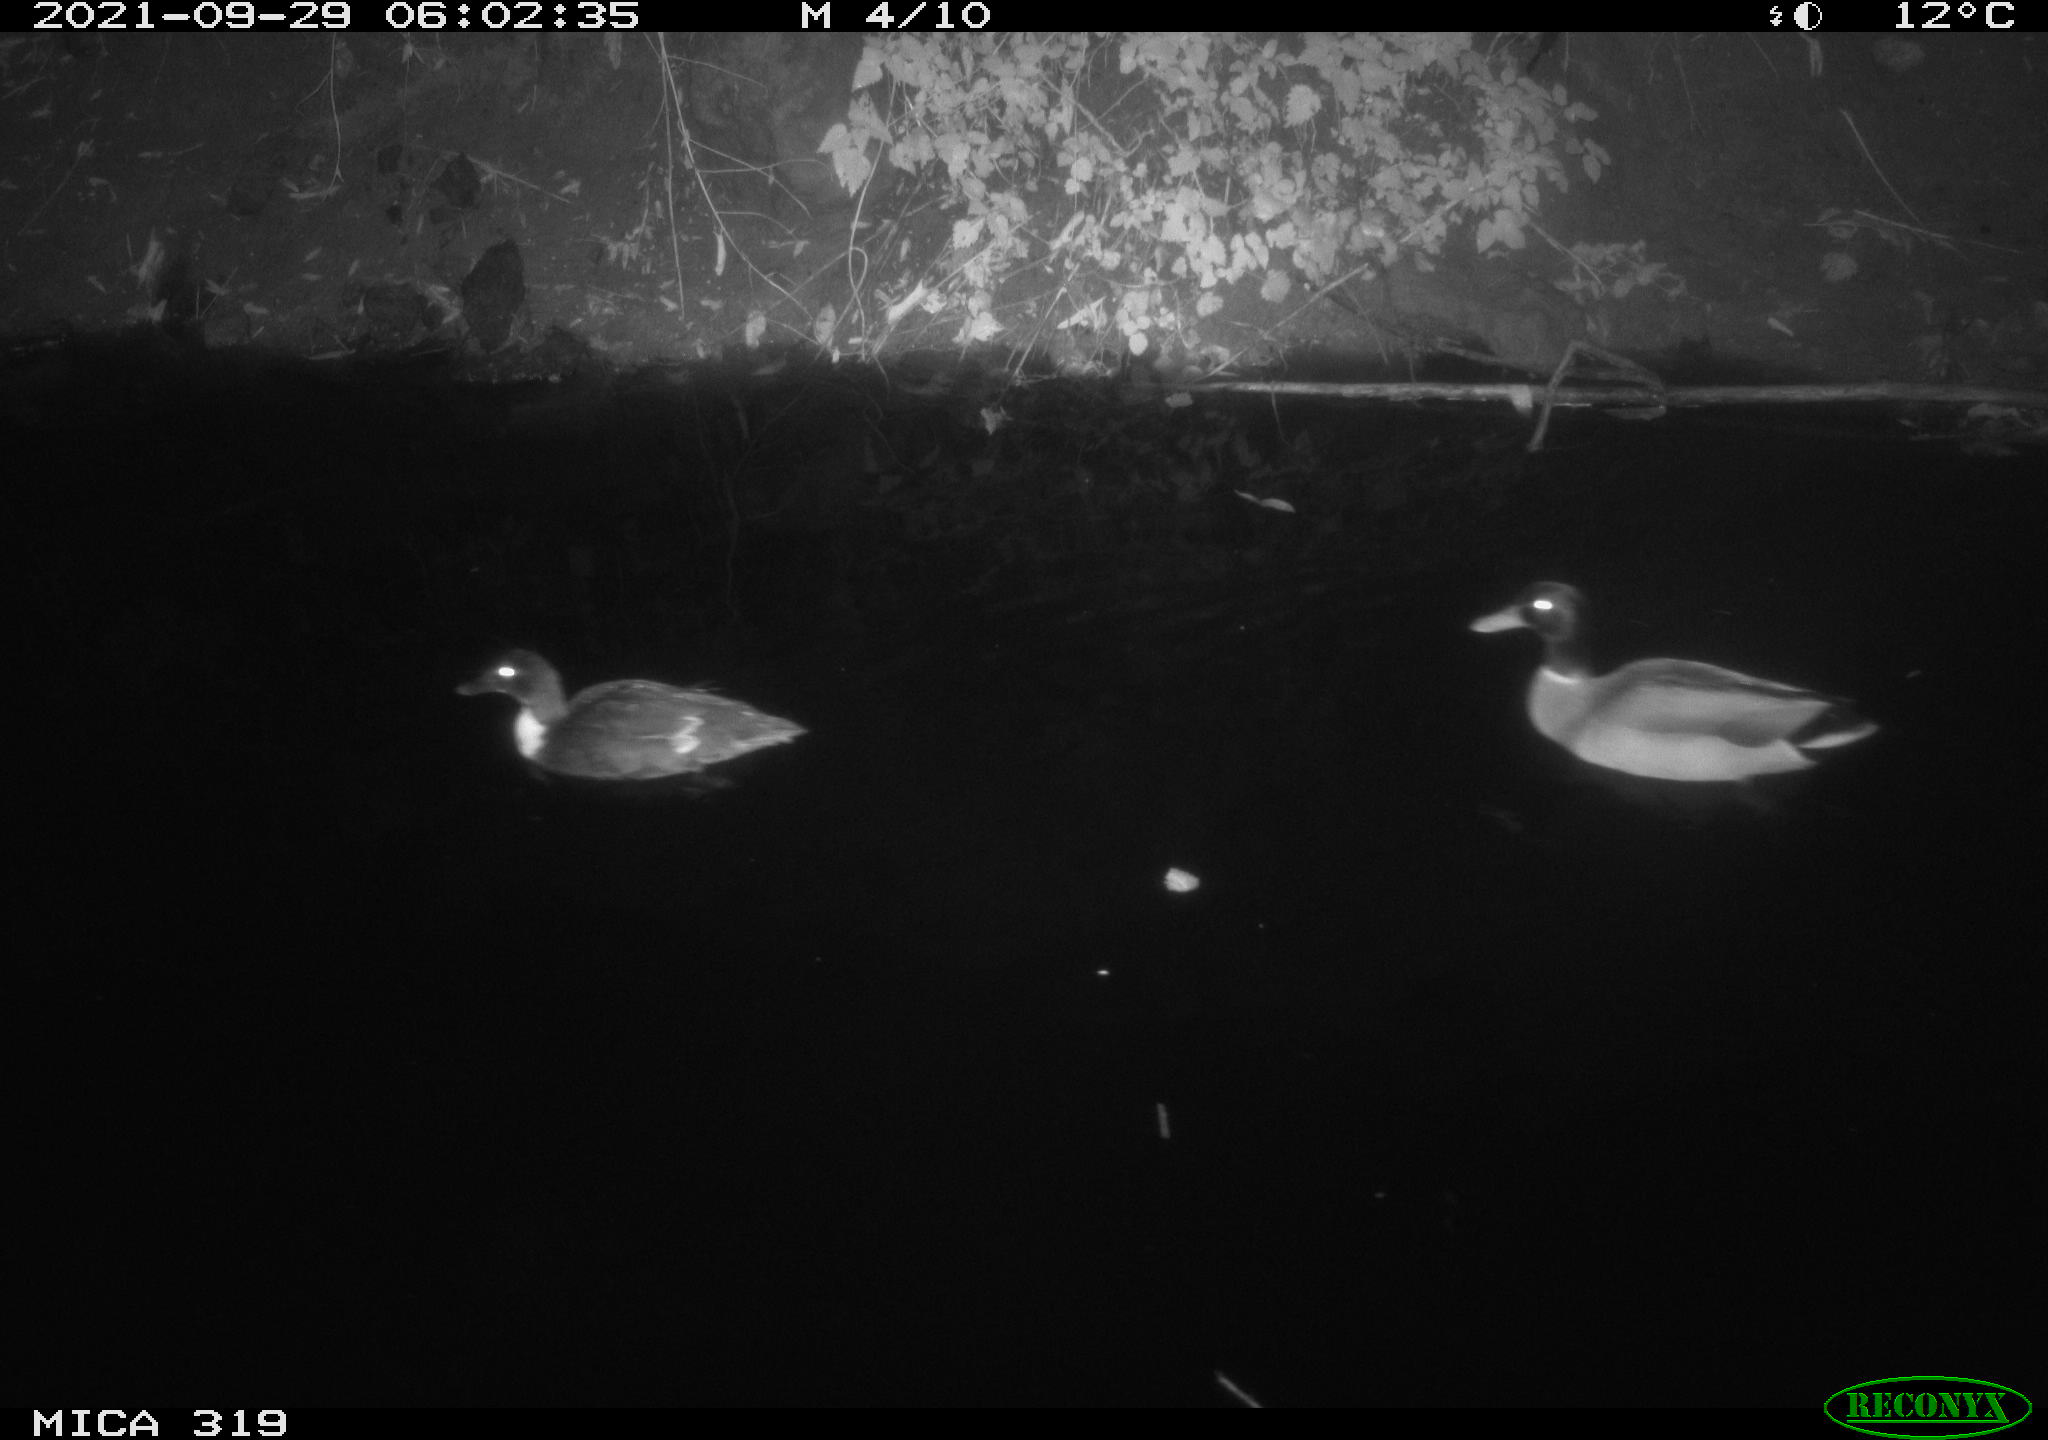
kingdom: Animalia
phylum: Chordata
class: Aves
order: Anseriformes
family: Anatidae
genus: Anas
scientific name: Anas platyrhynchos
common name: Mallard
